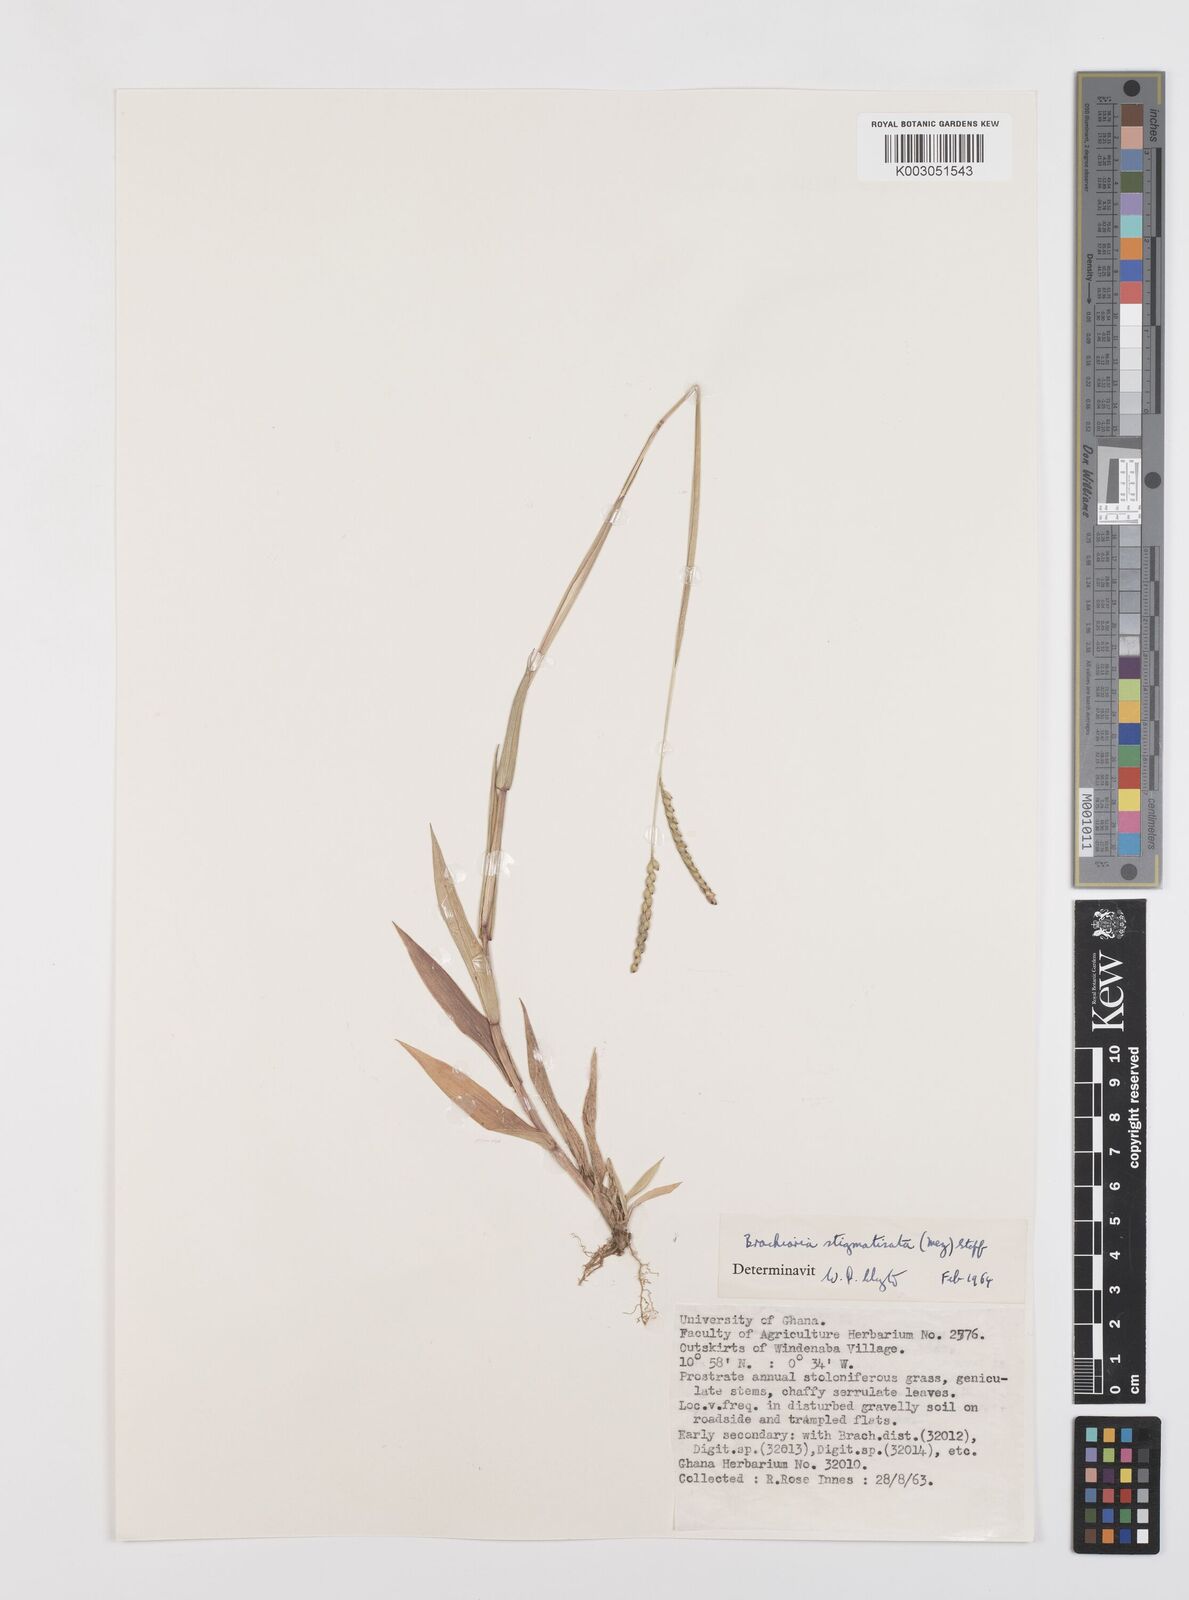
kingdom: Plantae
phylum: Tracheophyta
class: Liliopsida
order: Poales
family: Poaceae
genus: Urochloa
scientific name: Urochloa stigmatisata
